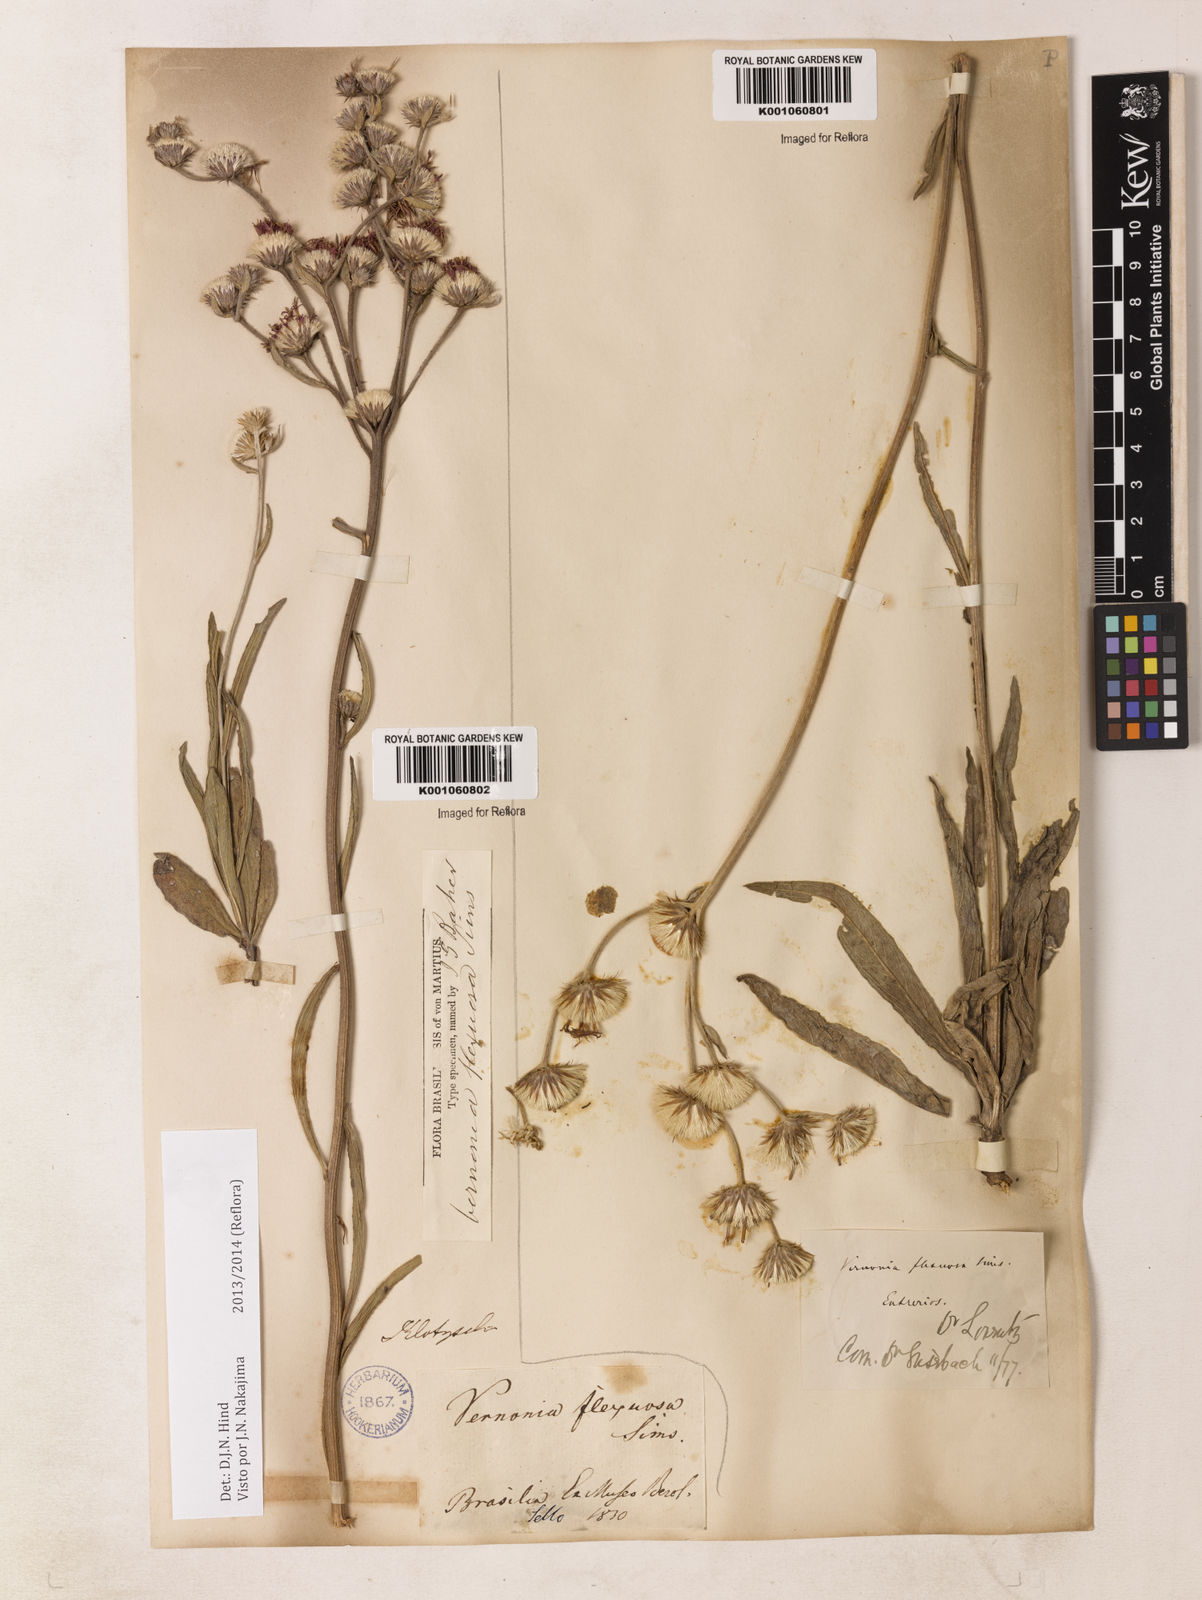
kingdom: Plantae
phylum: Tracheophyta
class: Magnoliopsida
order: Asterales
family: Asteraceae
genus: Chrysolaena
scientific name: Chrysolaena flexuosa
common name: Zig-zag vernonia
